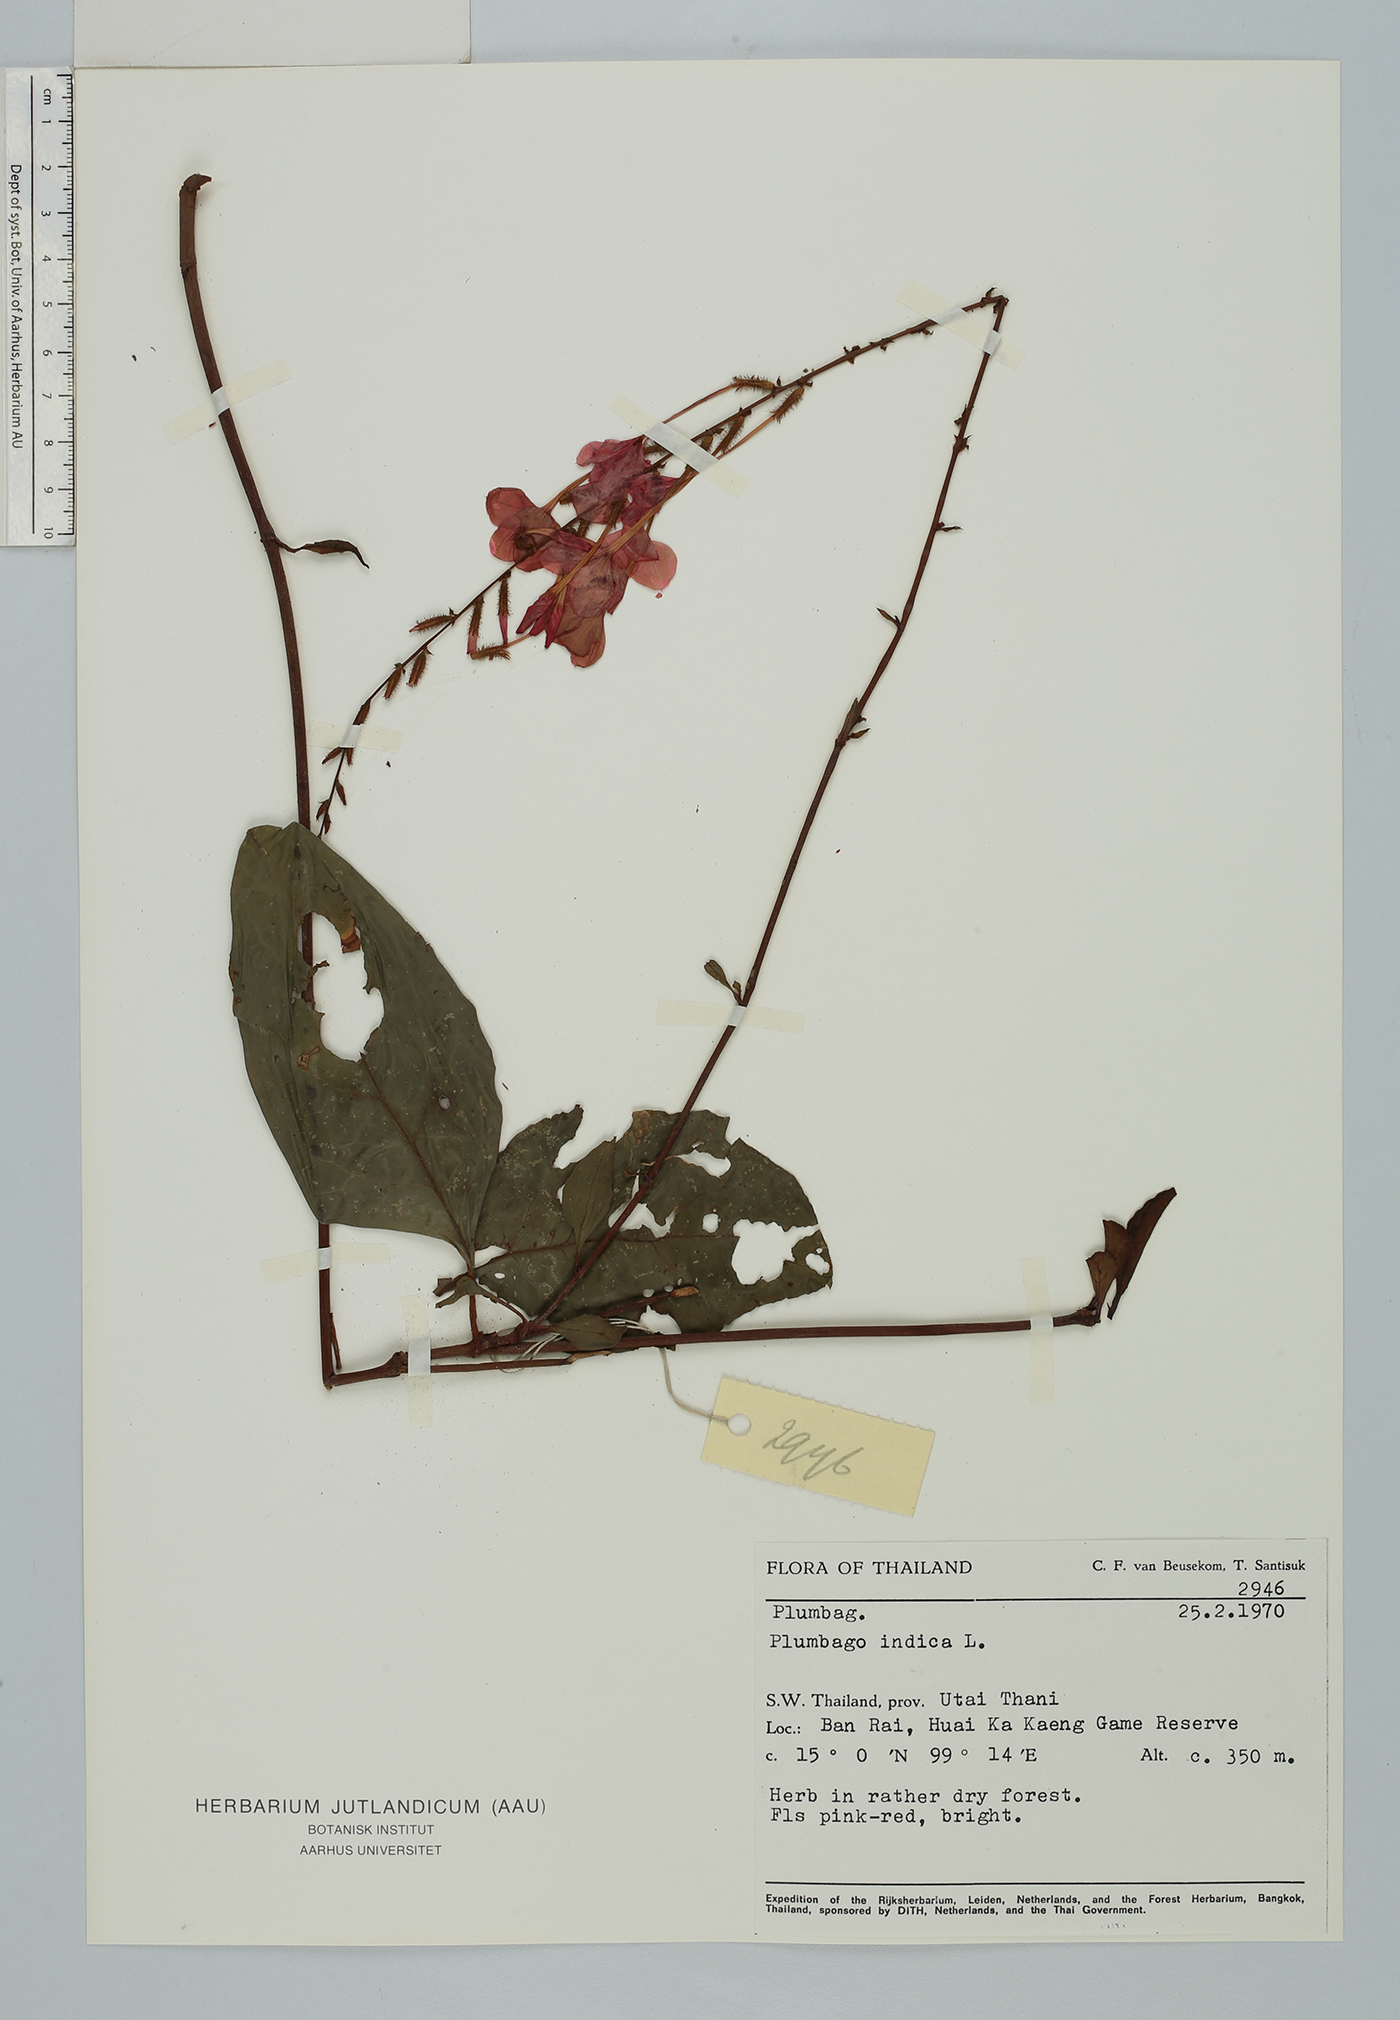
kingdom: Plantae
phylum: Tracheophyta
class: Magnoliopsida
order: Caryophyllales
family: Plumbaginaceae
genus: Plumbago
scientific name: Plumbago indica
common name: Indian leadwort
